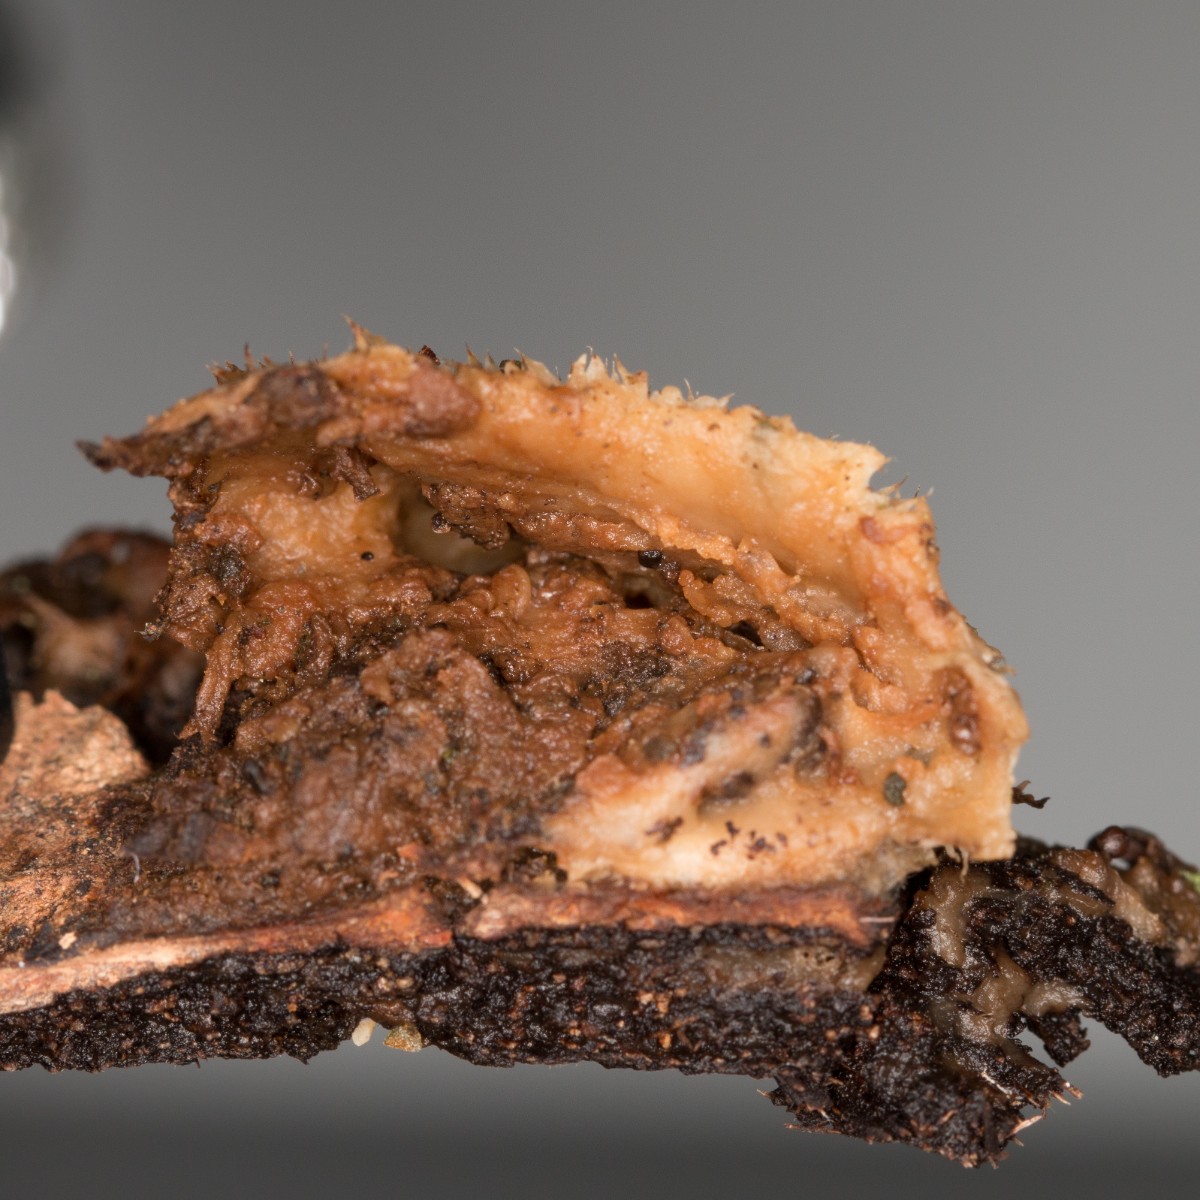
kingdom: Fungi
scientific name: Fungi
